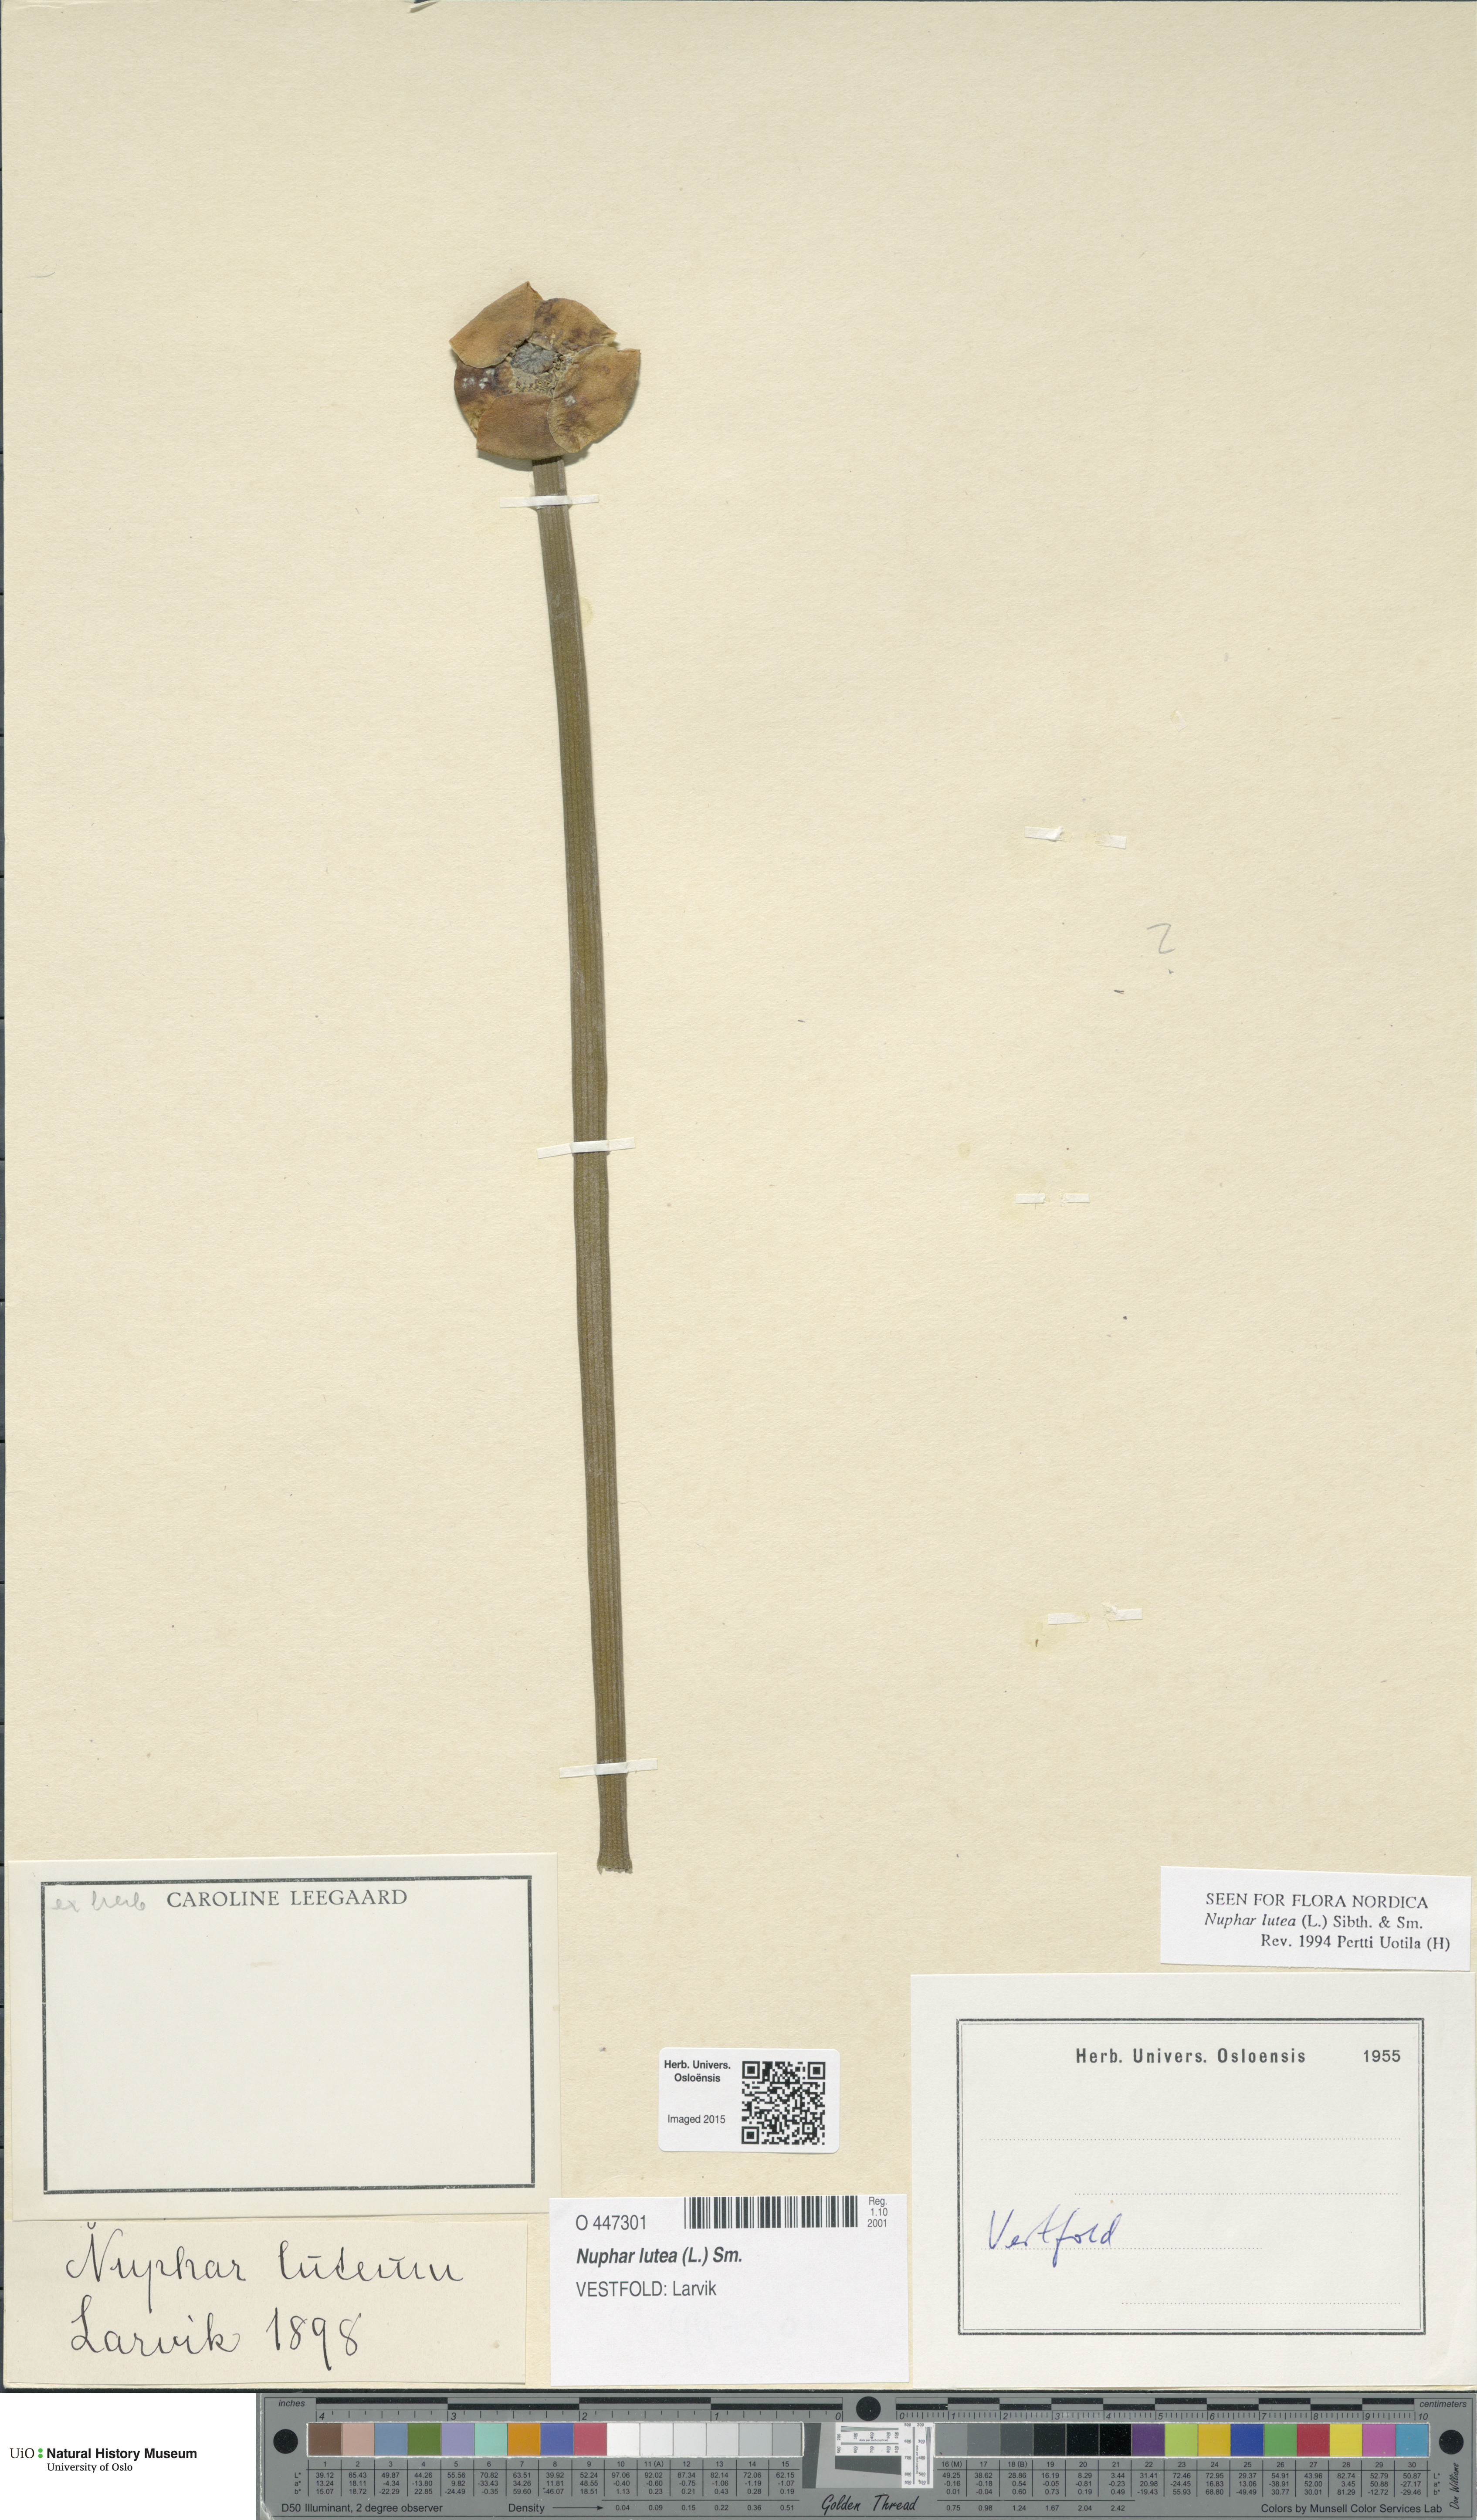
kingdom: Plantae
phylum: Tracheophyta
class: Magnoliopsida
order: Nymphaeales
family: Nymphaeaceae
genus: Nuphar
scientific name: Nuphar lutea
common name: Yellow water-lily
